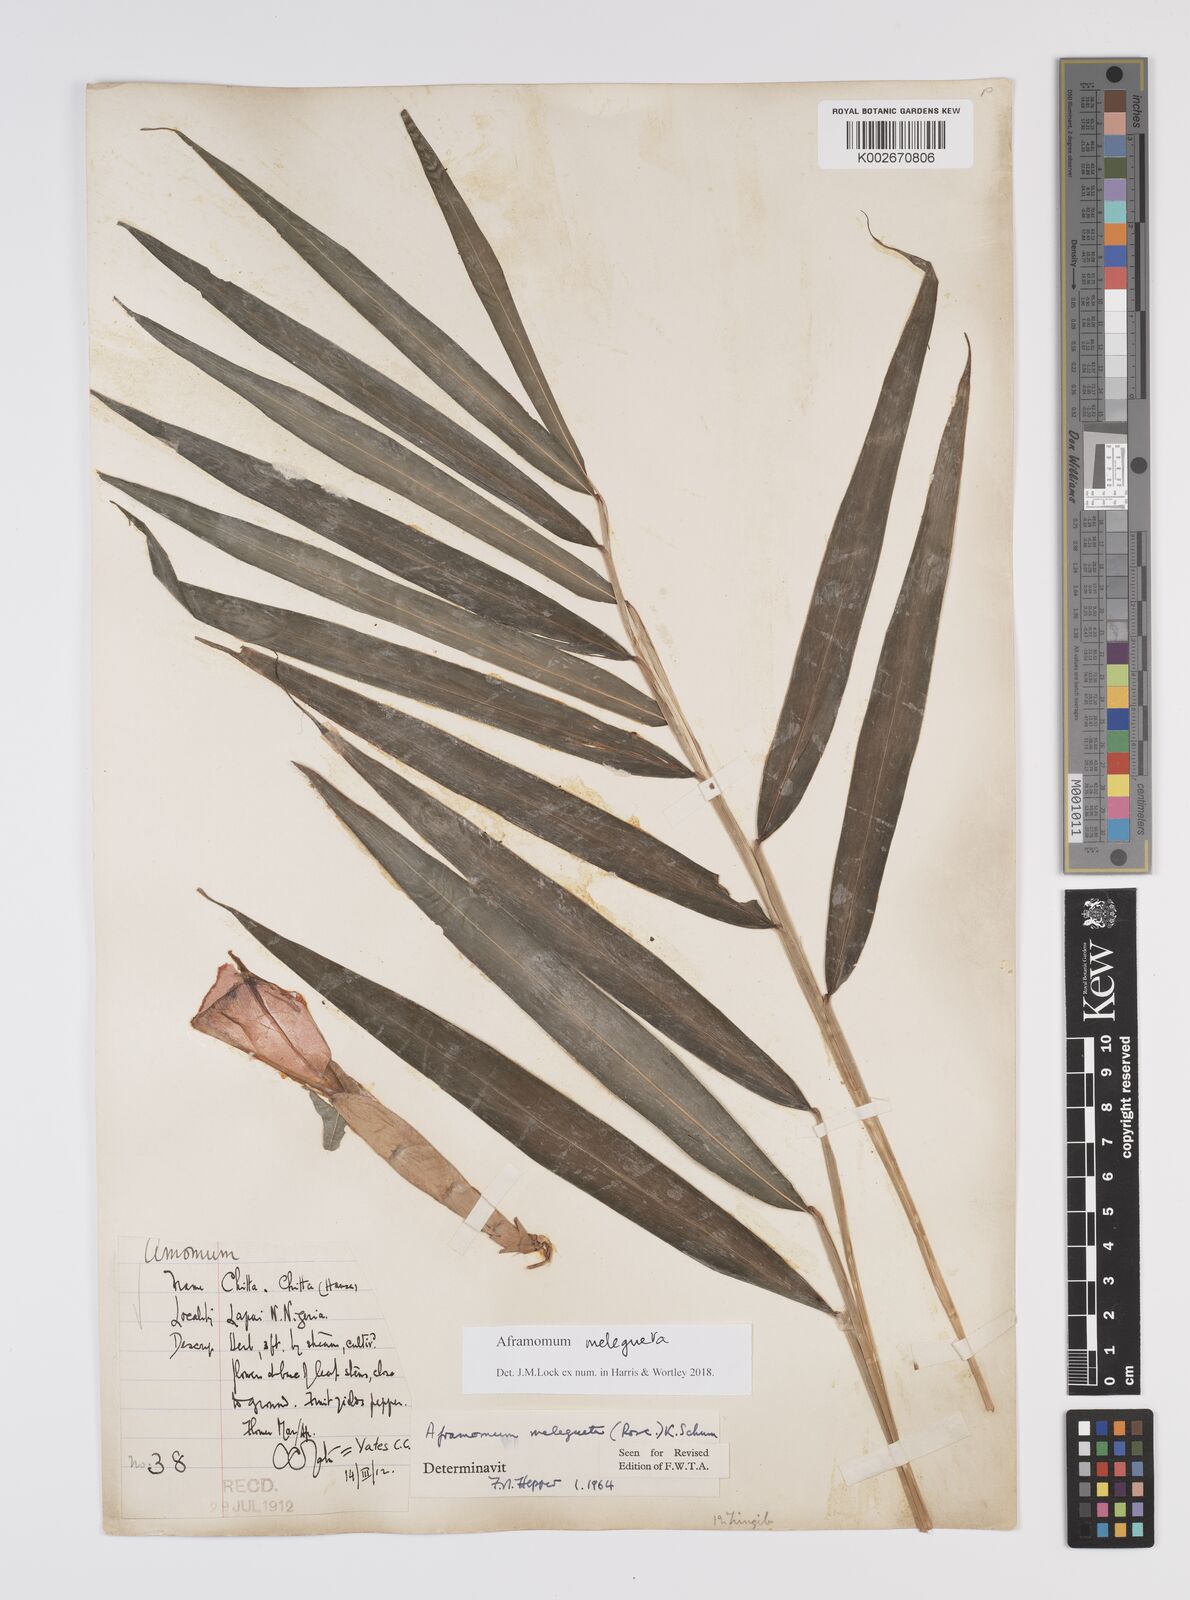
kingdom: Plantae
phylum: Tracheophyta
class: Liliopsida
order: Zingiberales
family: Zingiberaceae
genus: Aframomum
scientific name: Aframomum melegueta
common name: Grains of paradise
